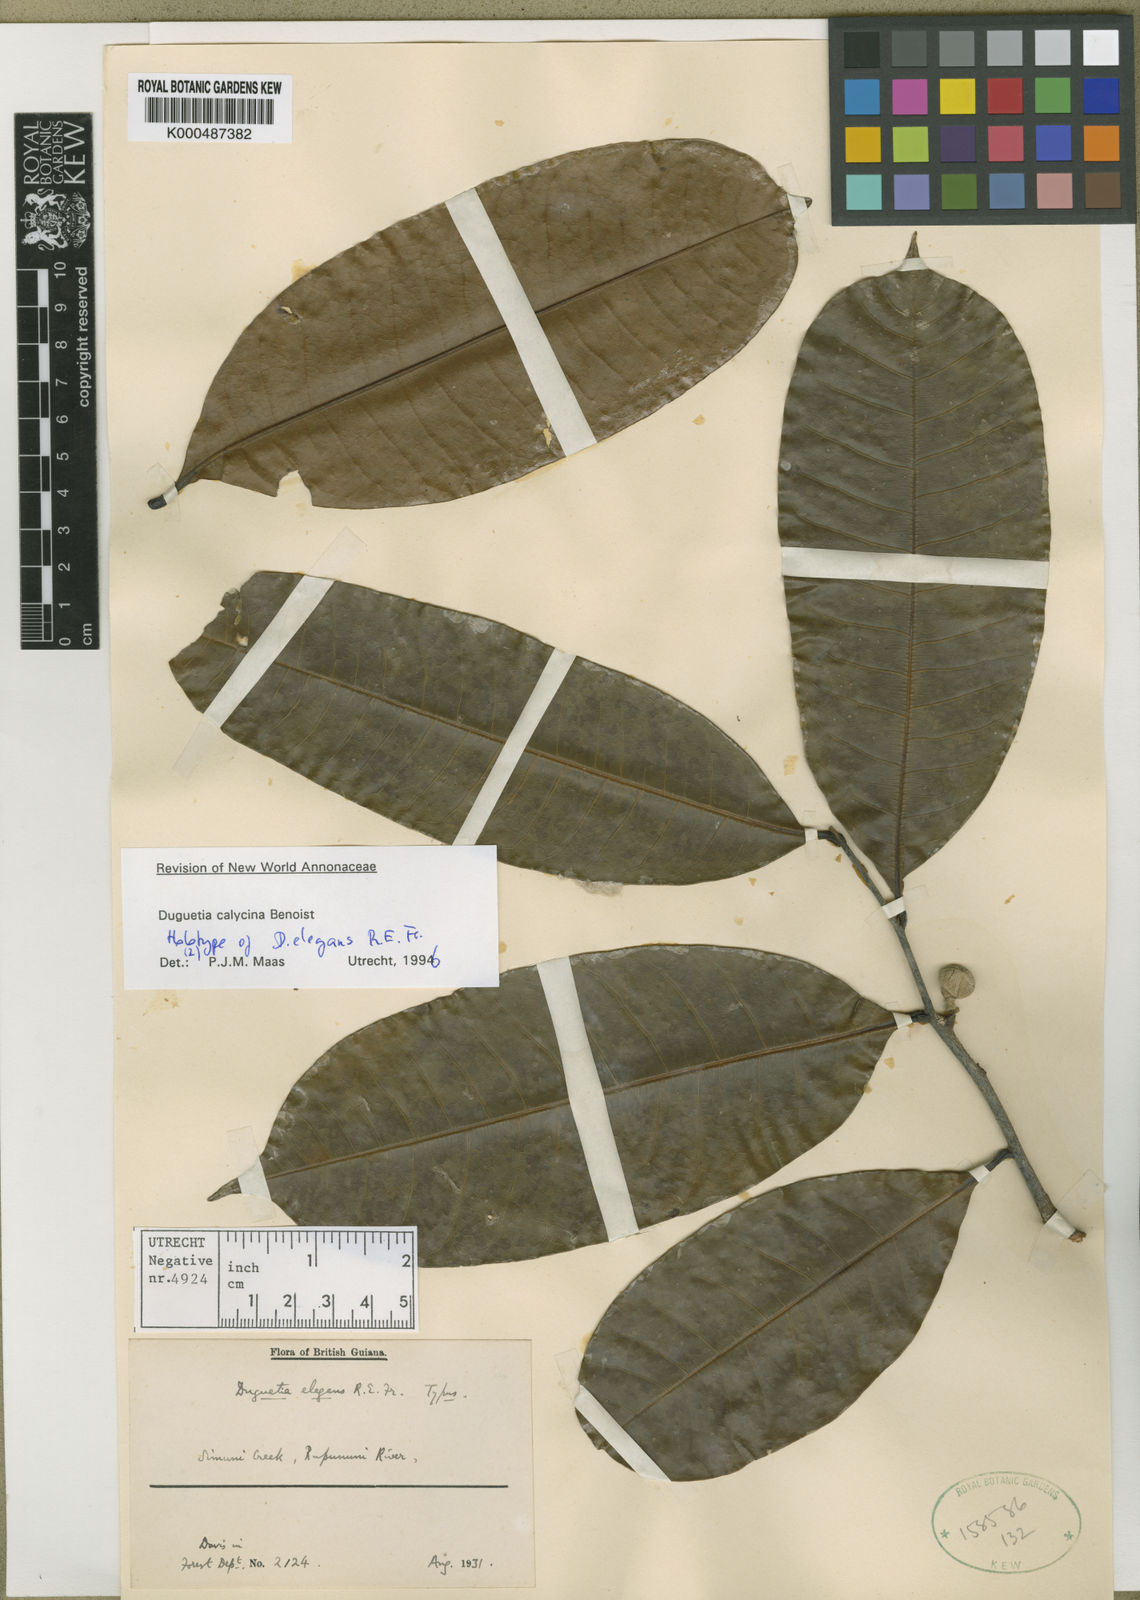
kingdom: Plantae
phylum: Tracheophyta
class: Magnoliopsida
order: Magnoliales
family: Annonaceae
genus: Duguetia
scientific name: Duguetia calycina
